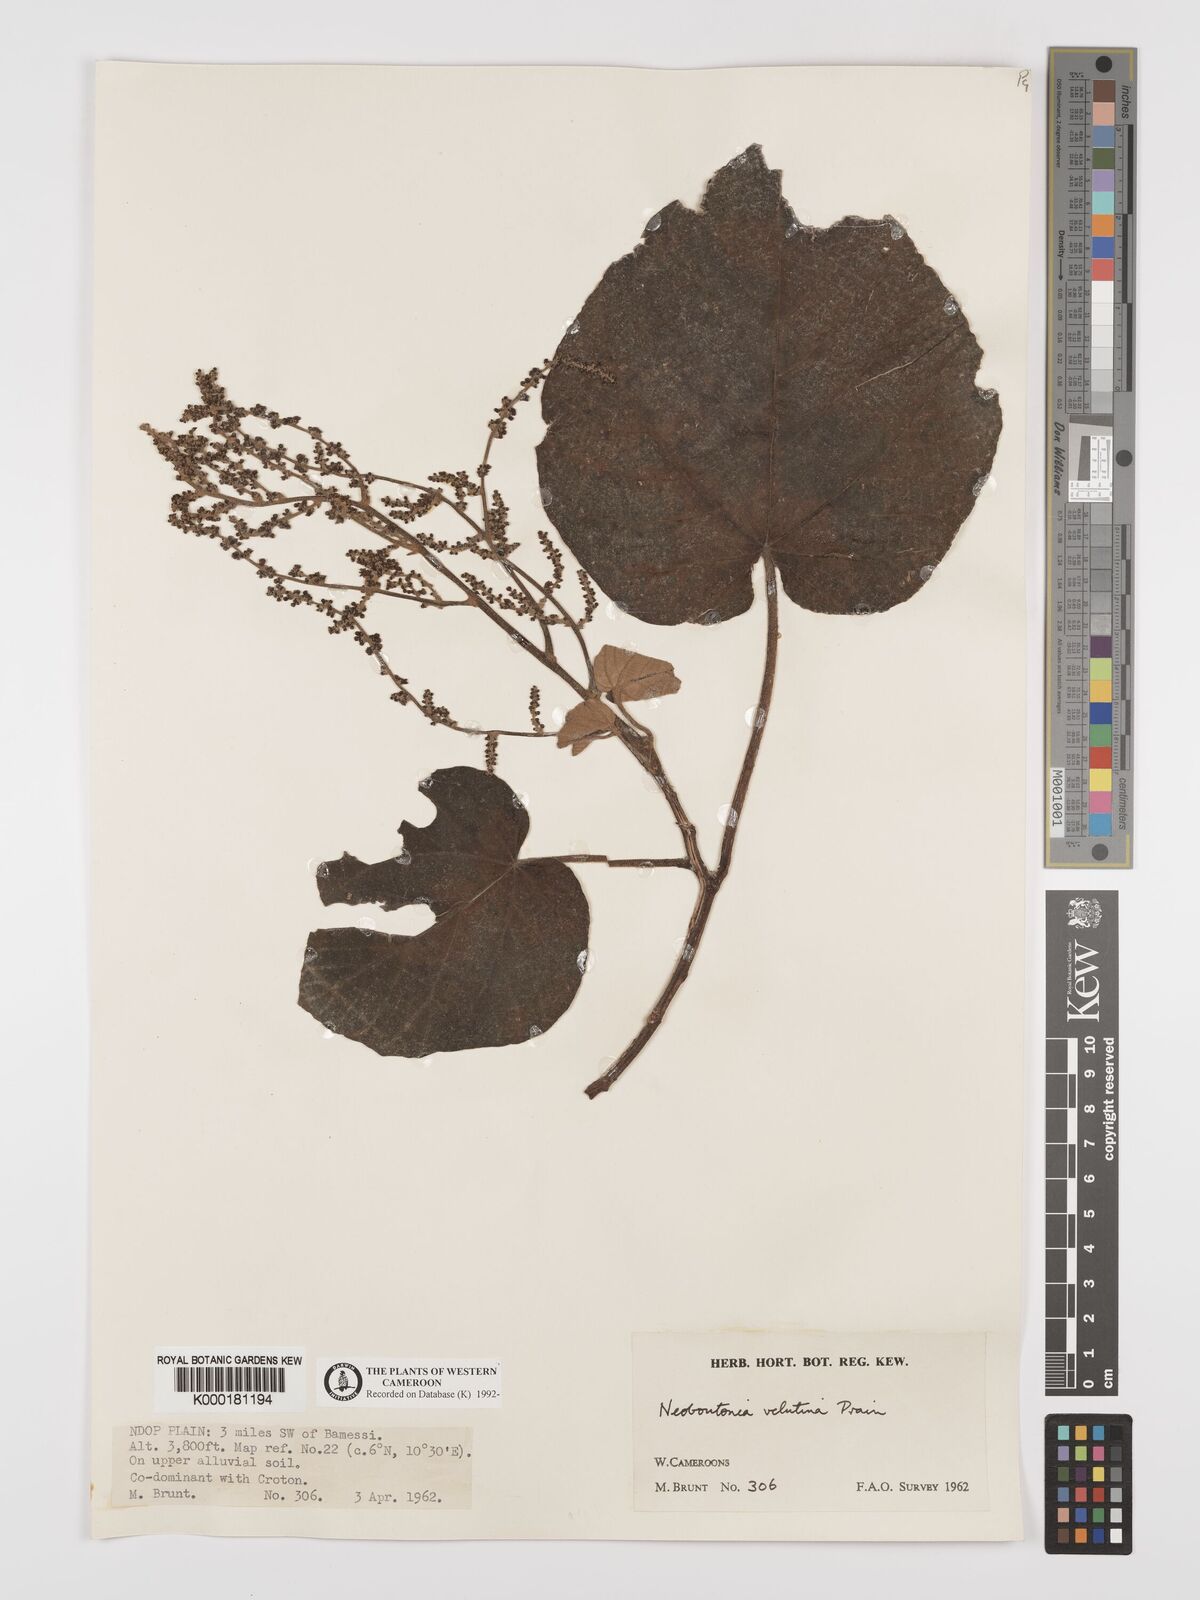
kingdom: Plantae
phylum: Tracheophyta
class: Magnoliopsida
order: Malpighiales
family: Euphorbiaceae
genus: Neoboutonia
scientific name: Neoboutonia
